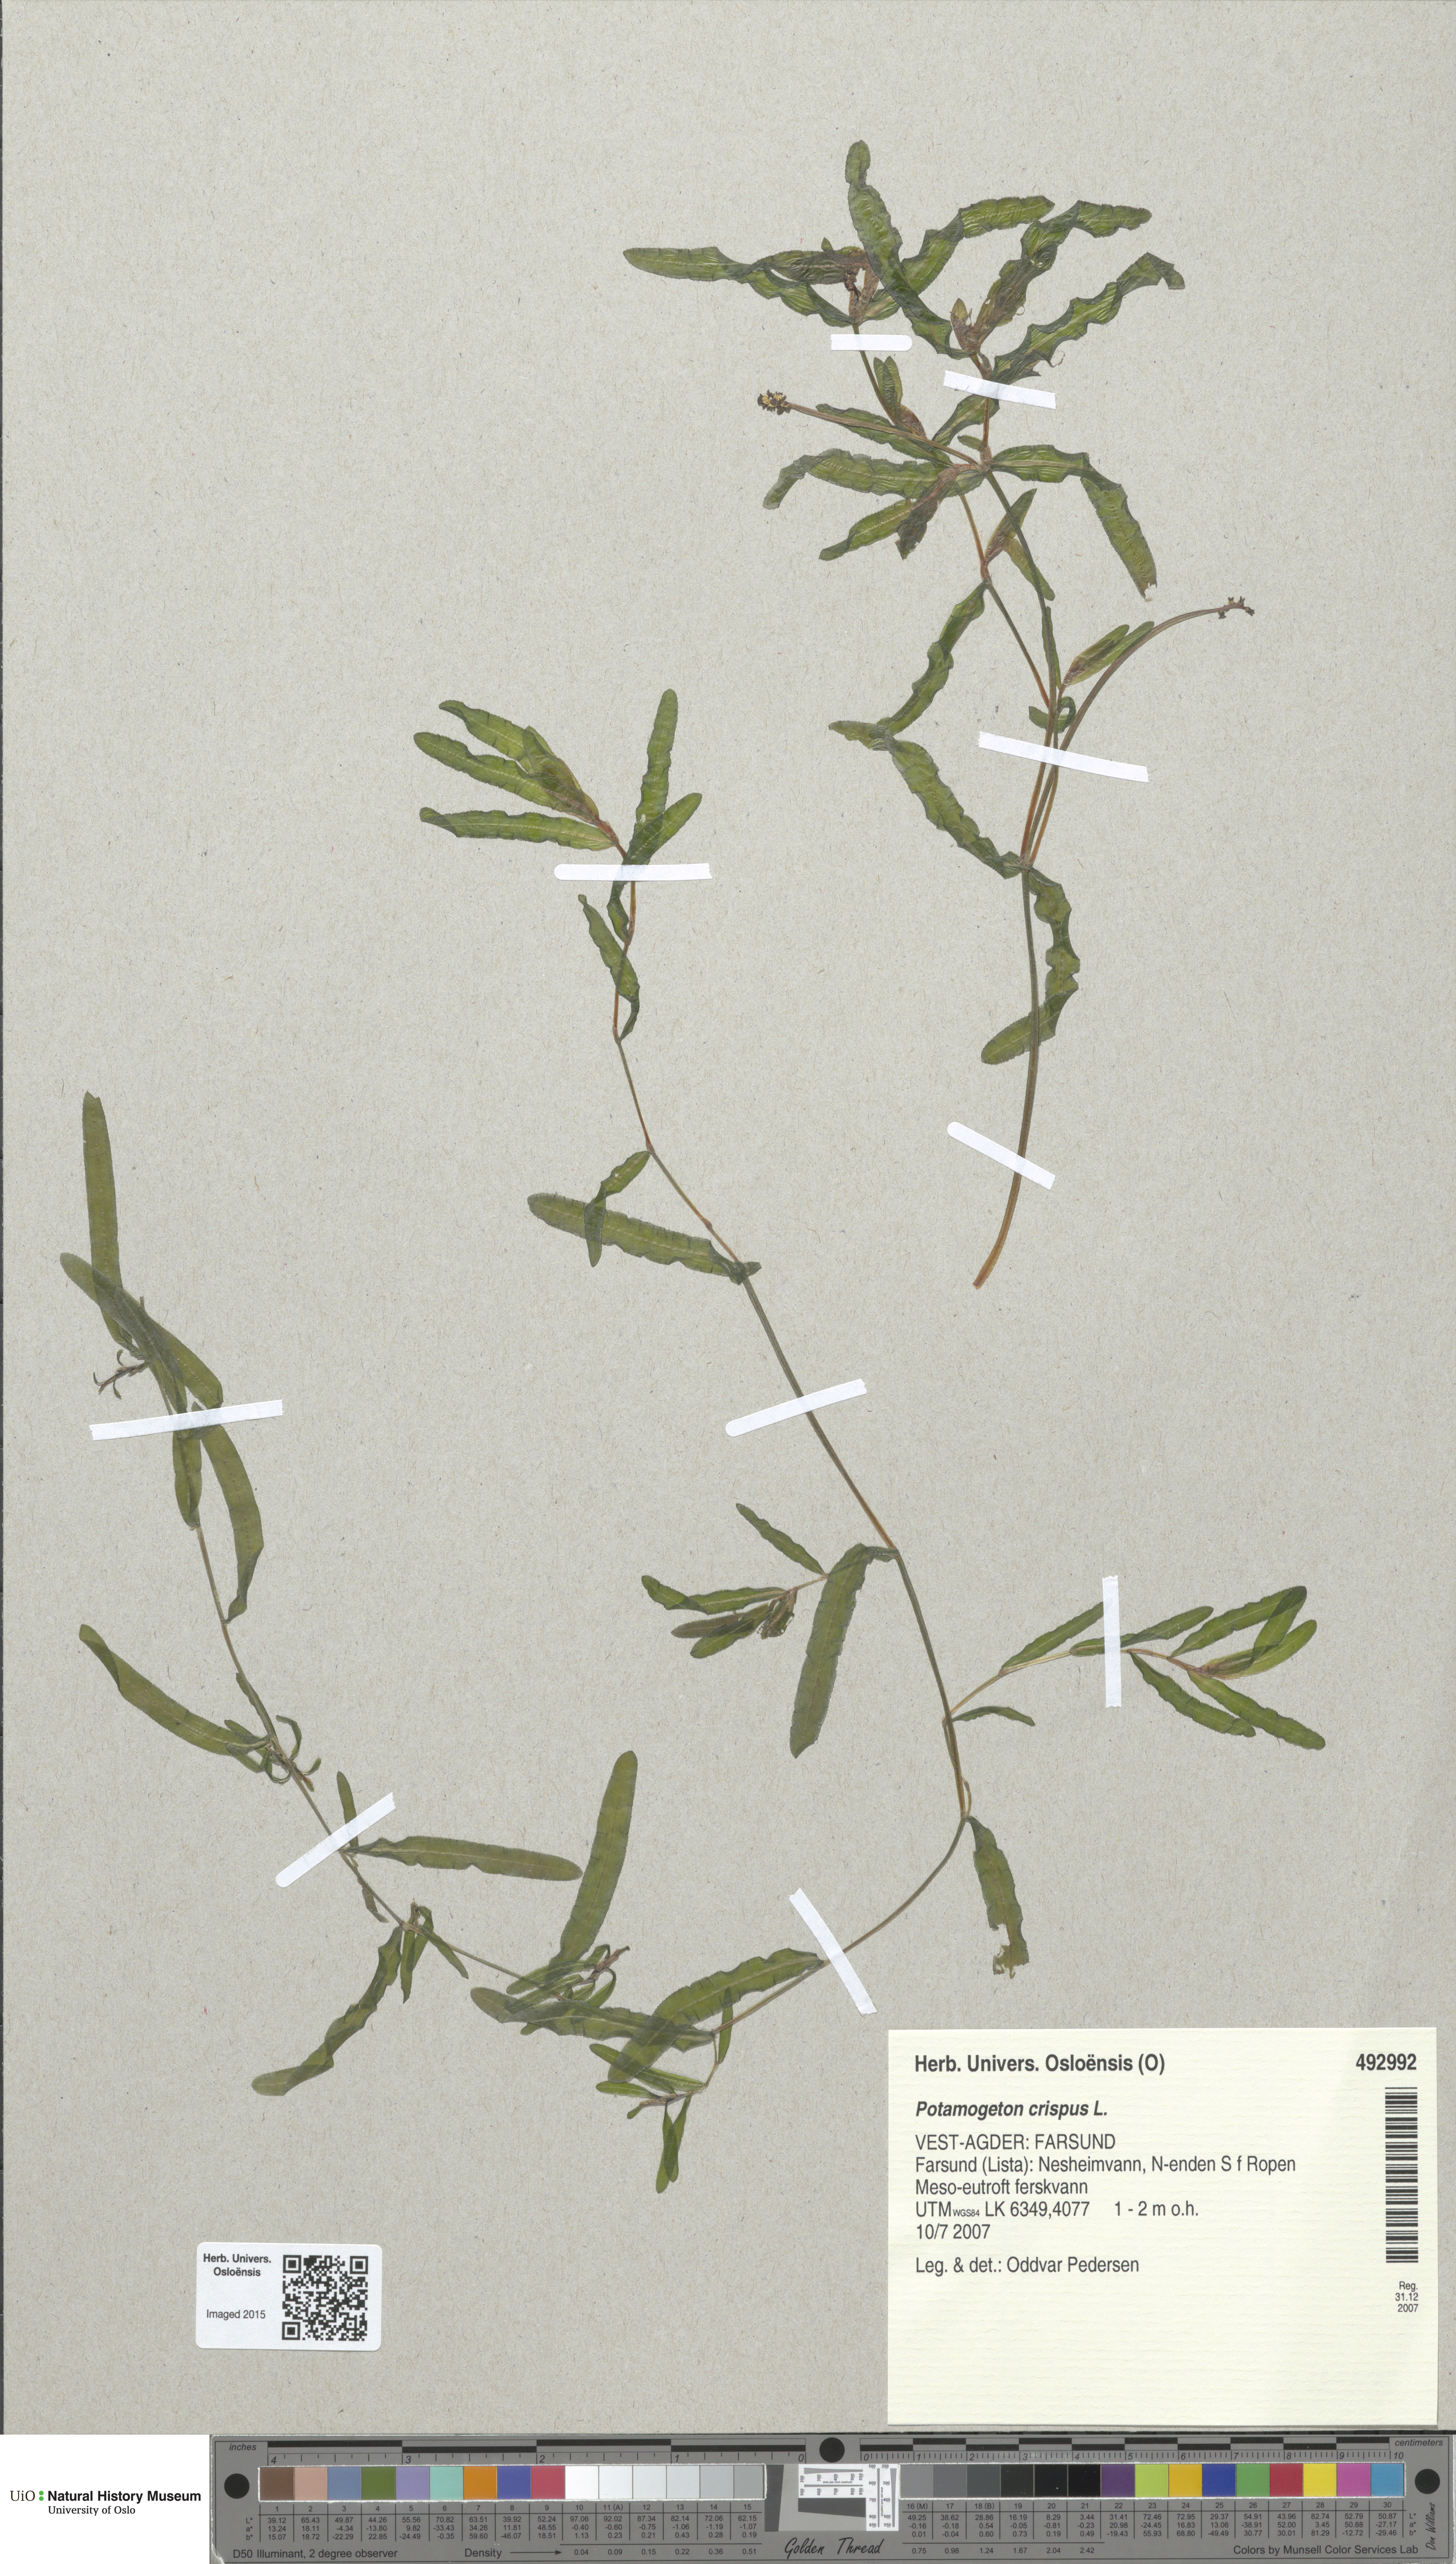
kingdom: Plantae
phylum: Tracheophyta
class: Liliopsida
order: Alismatales
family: Potamogetonaceae
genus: Potamogeton
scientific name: Potamogeton crispus
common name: Curled pondweed
